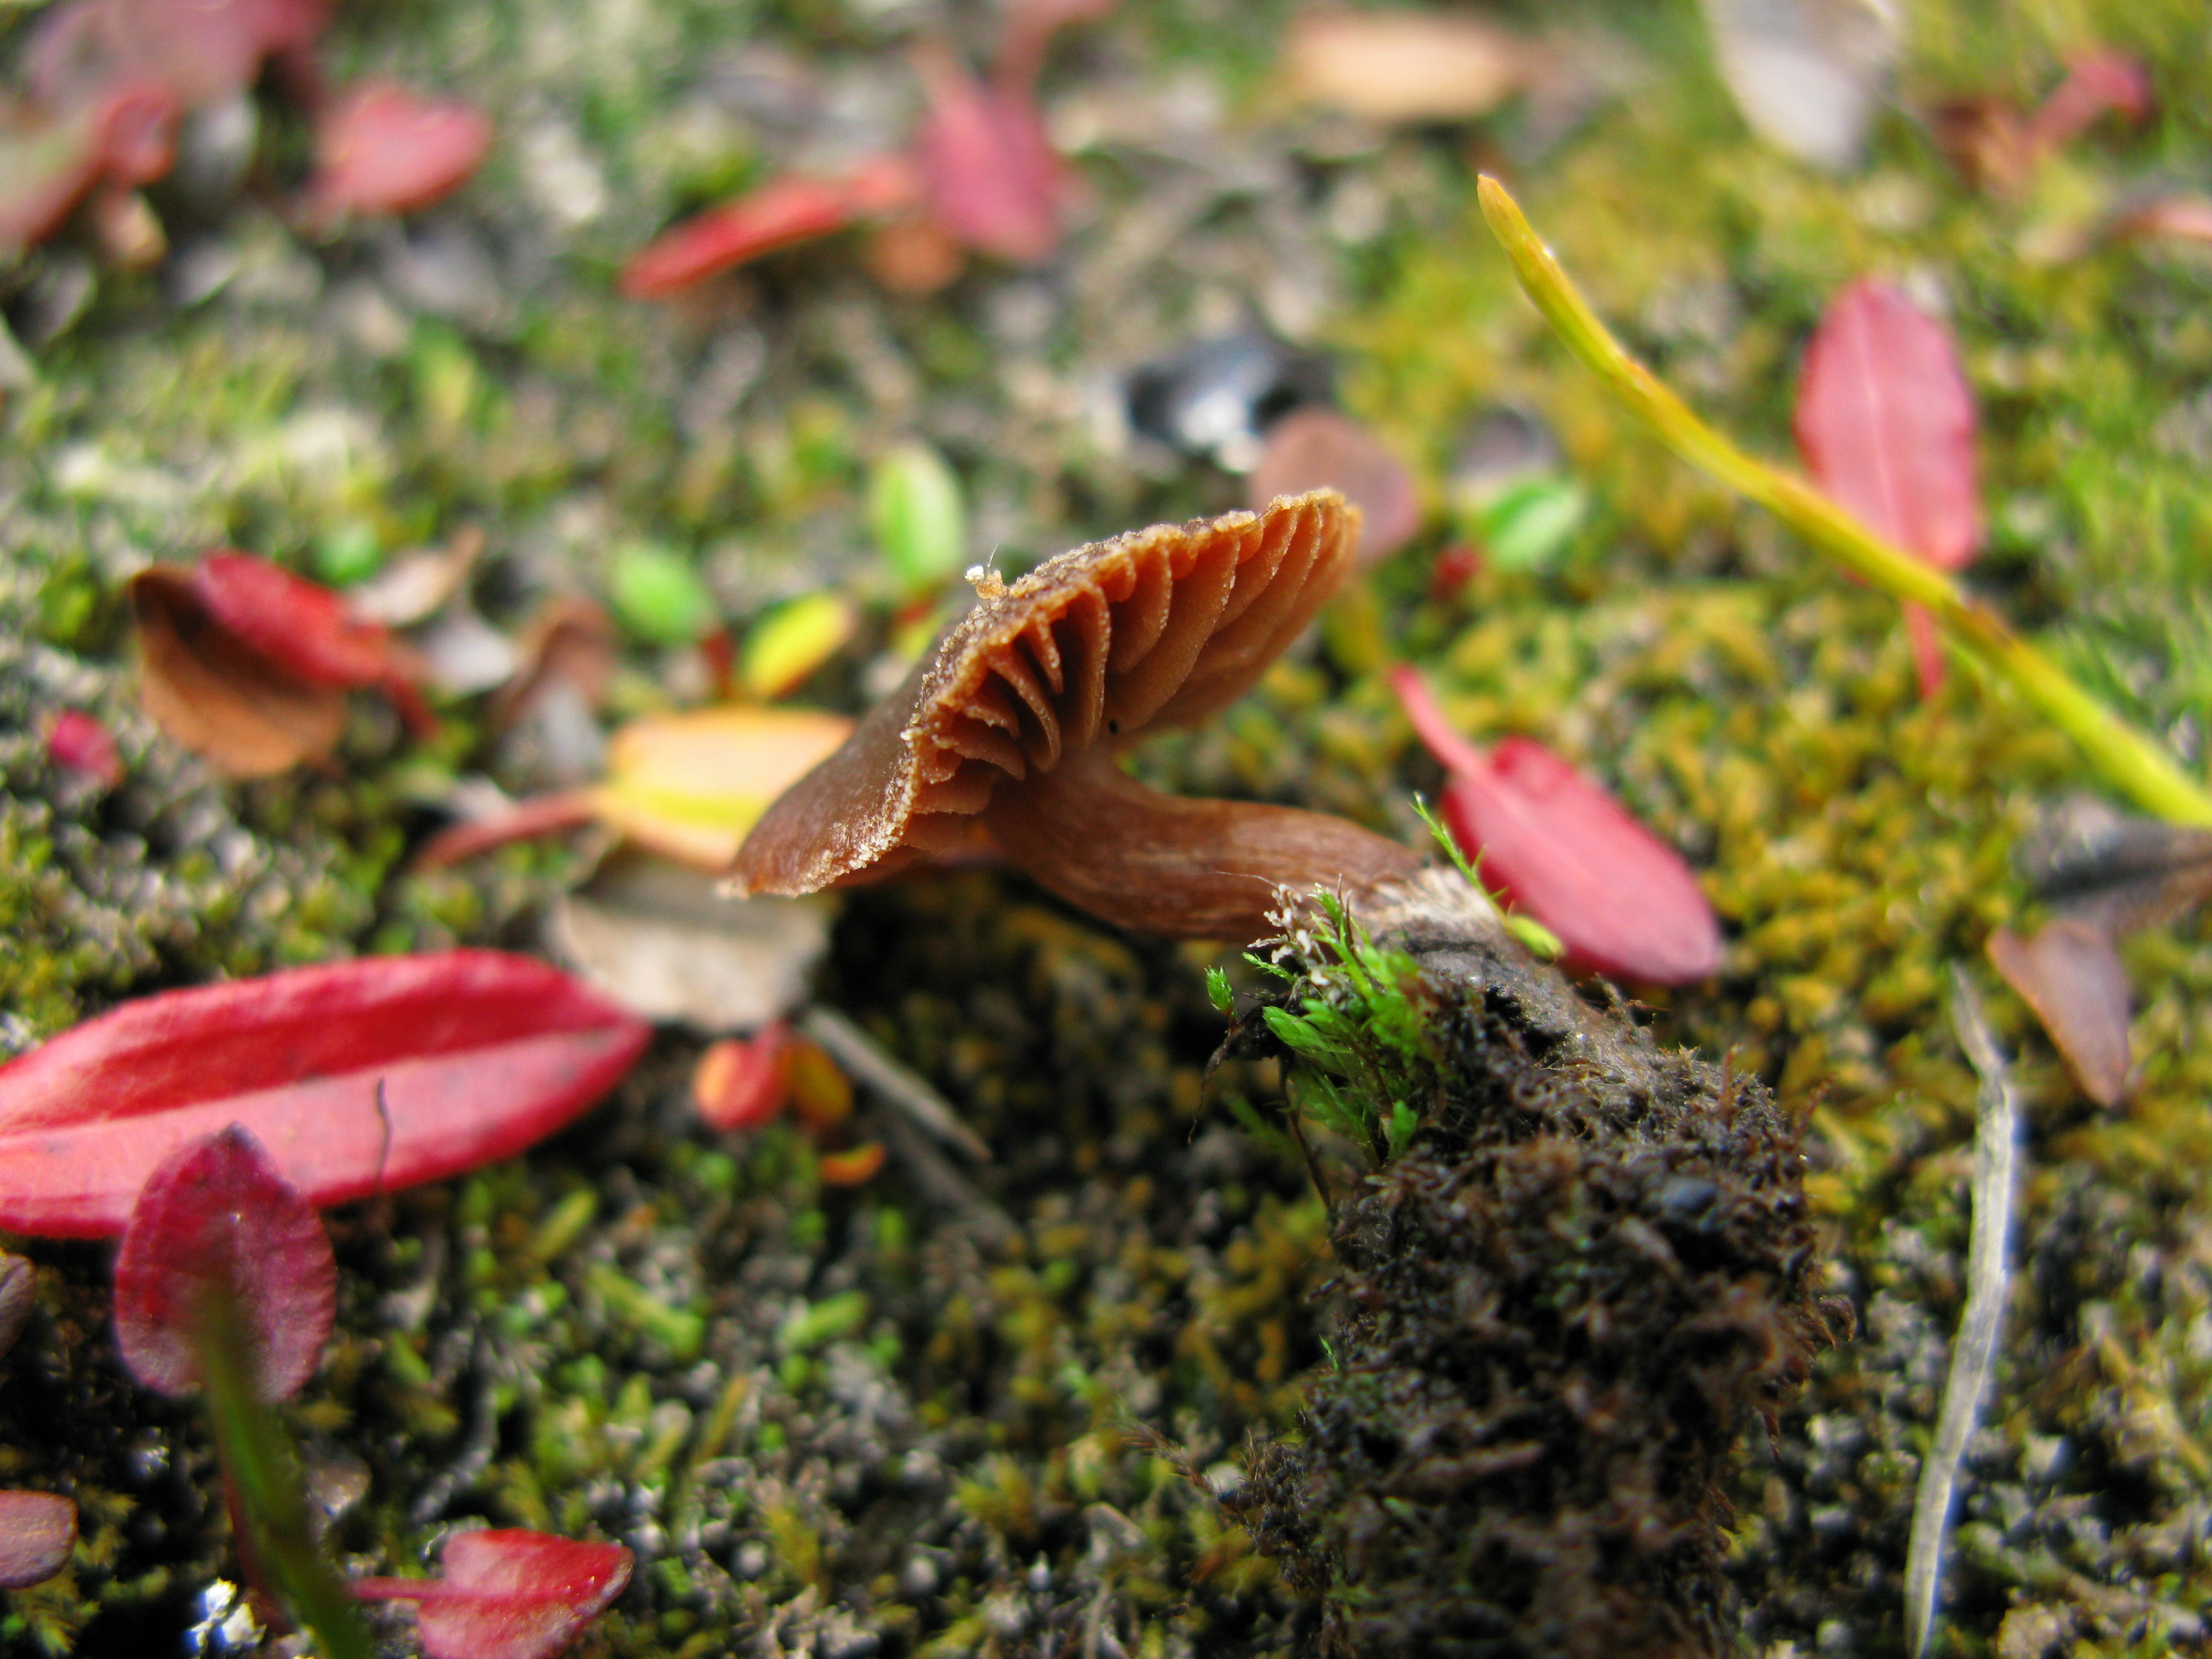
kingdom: Fungi
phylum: Basidiomycota
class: Agaricomycetes
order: Agaricales
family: Cortinariaceae
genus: Cortinarius
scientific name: Cortinarius pulchripes
